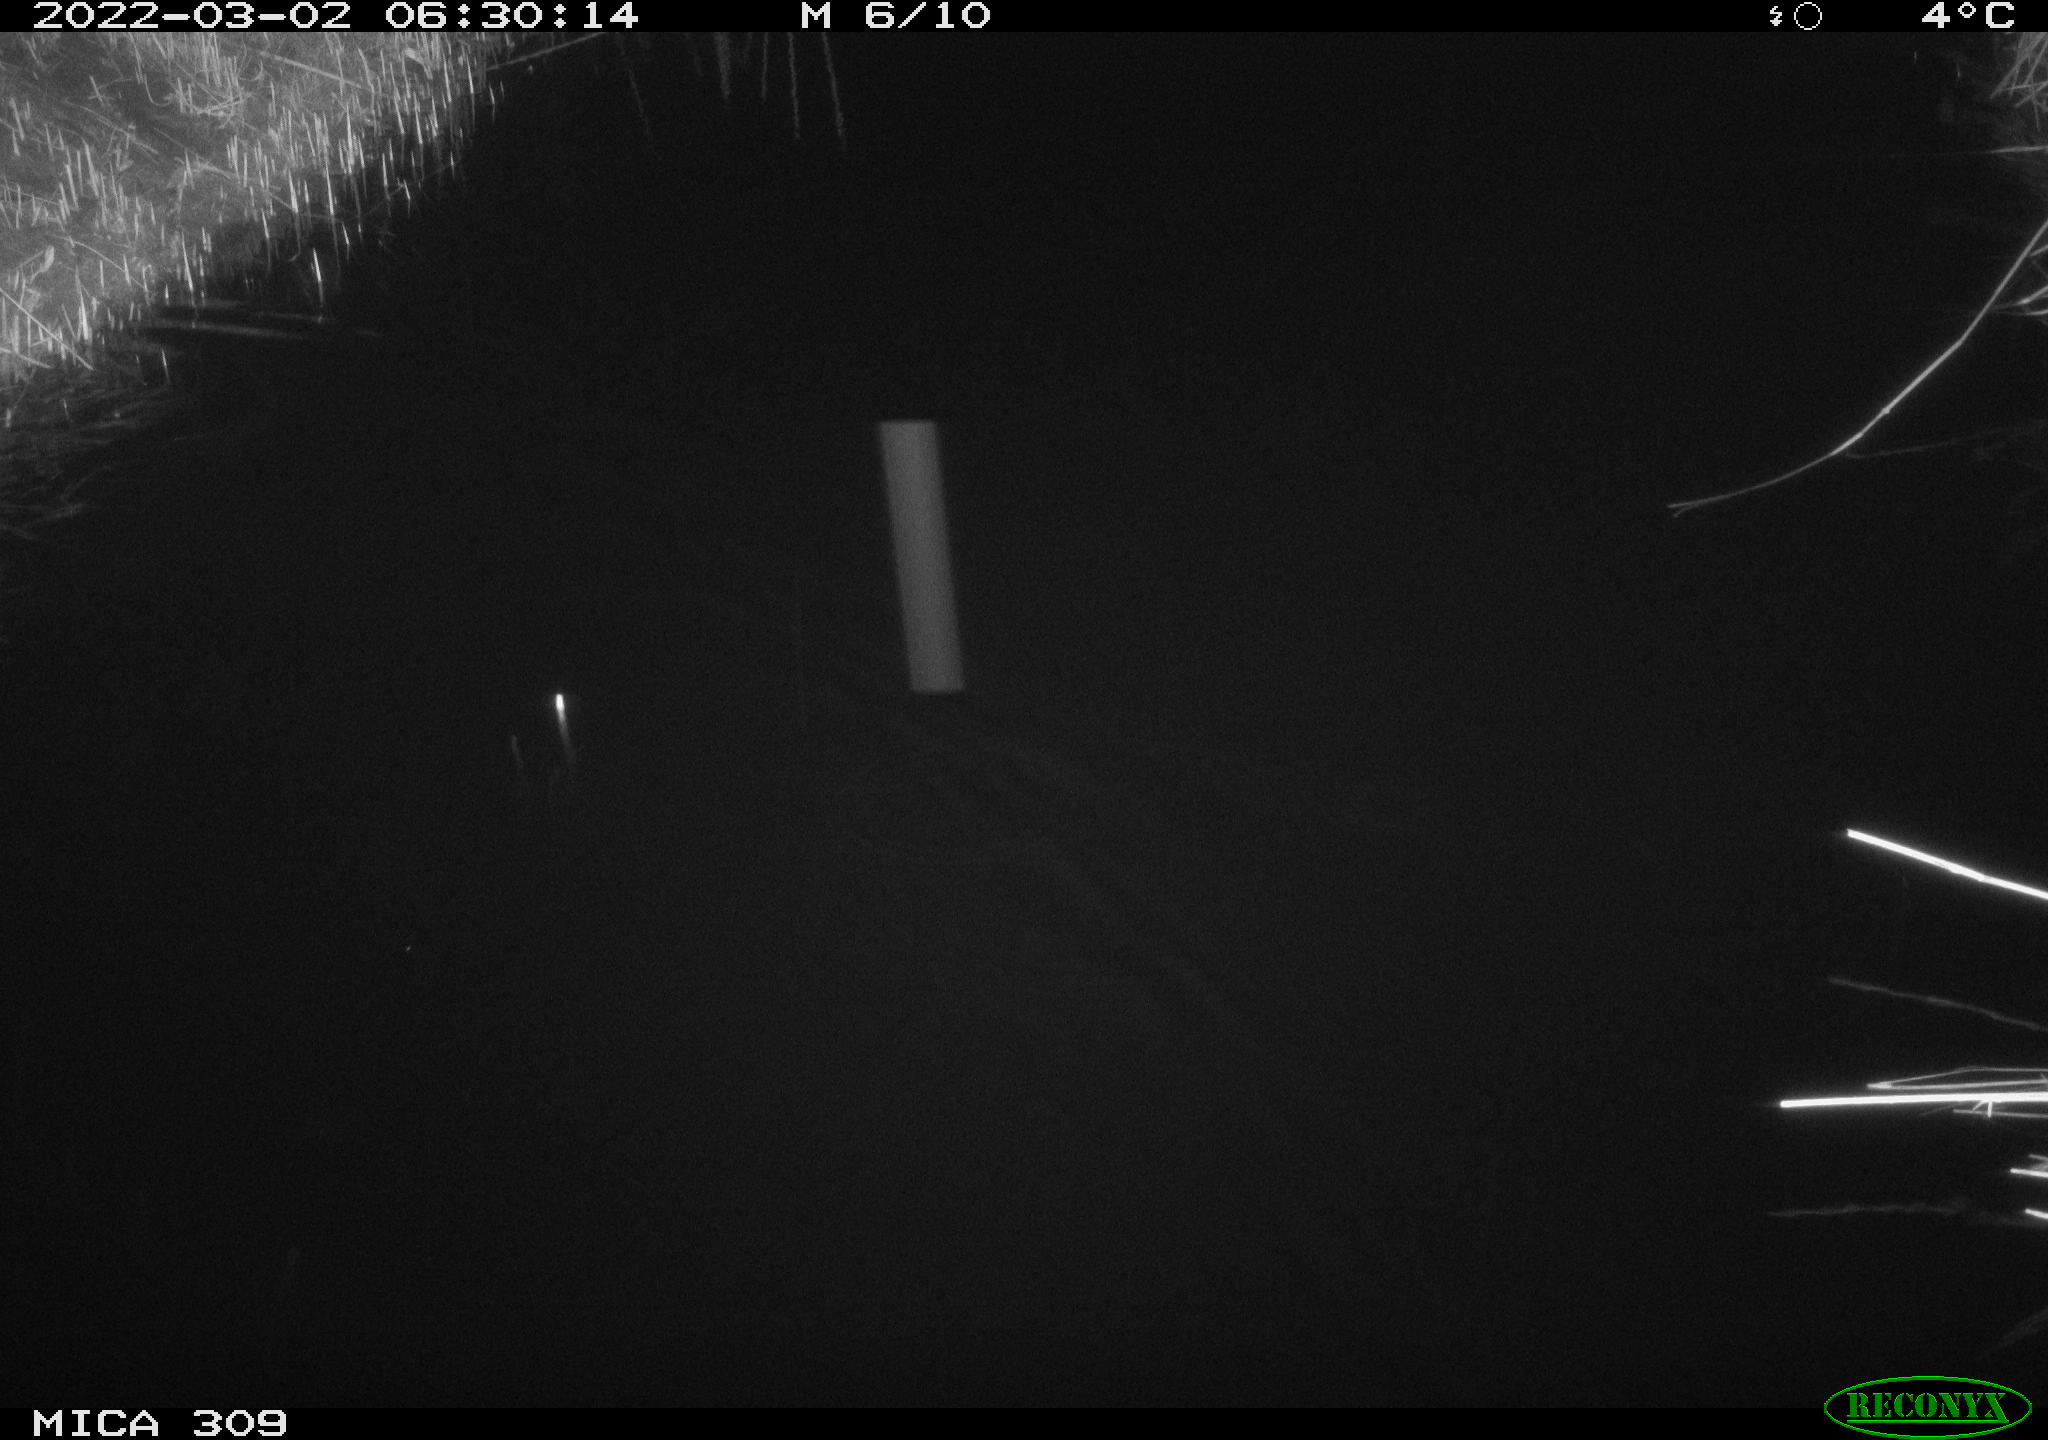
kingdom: Animalia
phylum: Chordata
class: Mammalia
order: Rodentia
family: Muridae
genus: Rattus
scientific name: Rattus norvegicus
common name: Brown rat
